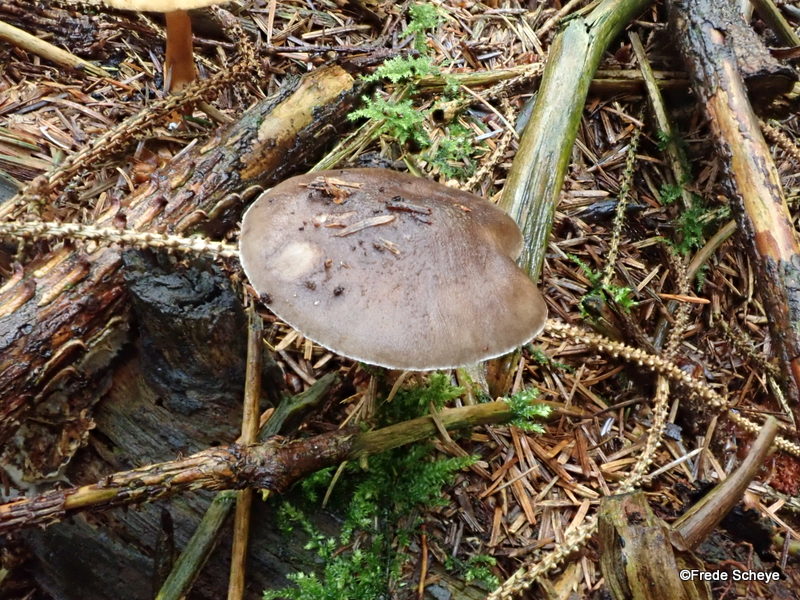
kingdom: Fungi
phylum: Basidiomycota
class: Agaricomycetes
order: Agaricales
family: Pluteaceae
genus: Pluteus
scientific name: Pluteus pouzarianus
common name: plantage-skærmhat
